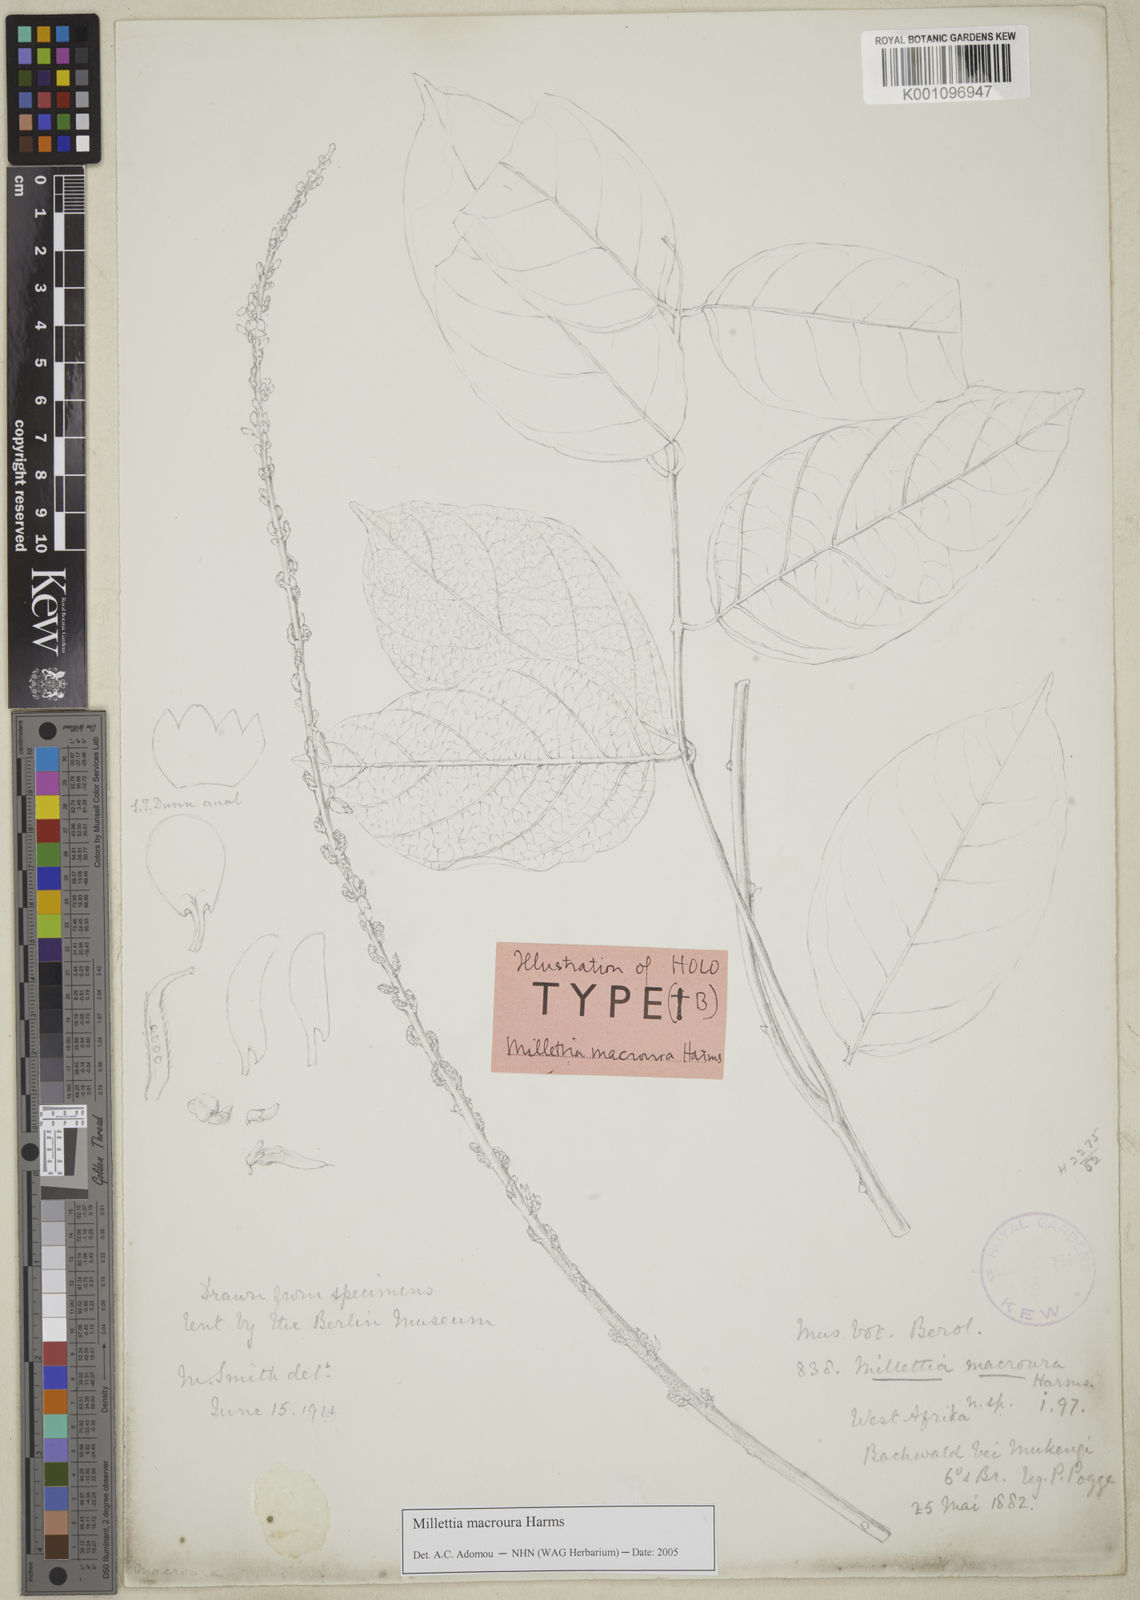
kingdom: Plantae
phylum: Tracheophyta
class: Magnoliopsida
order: Fabales
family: Fabaceae
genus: Millettia
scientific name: Millettia macroura
